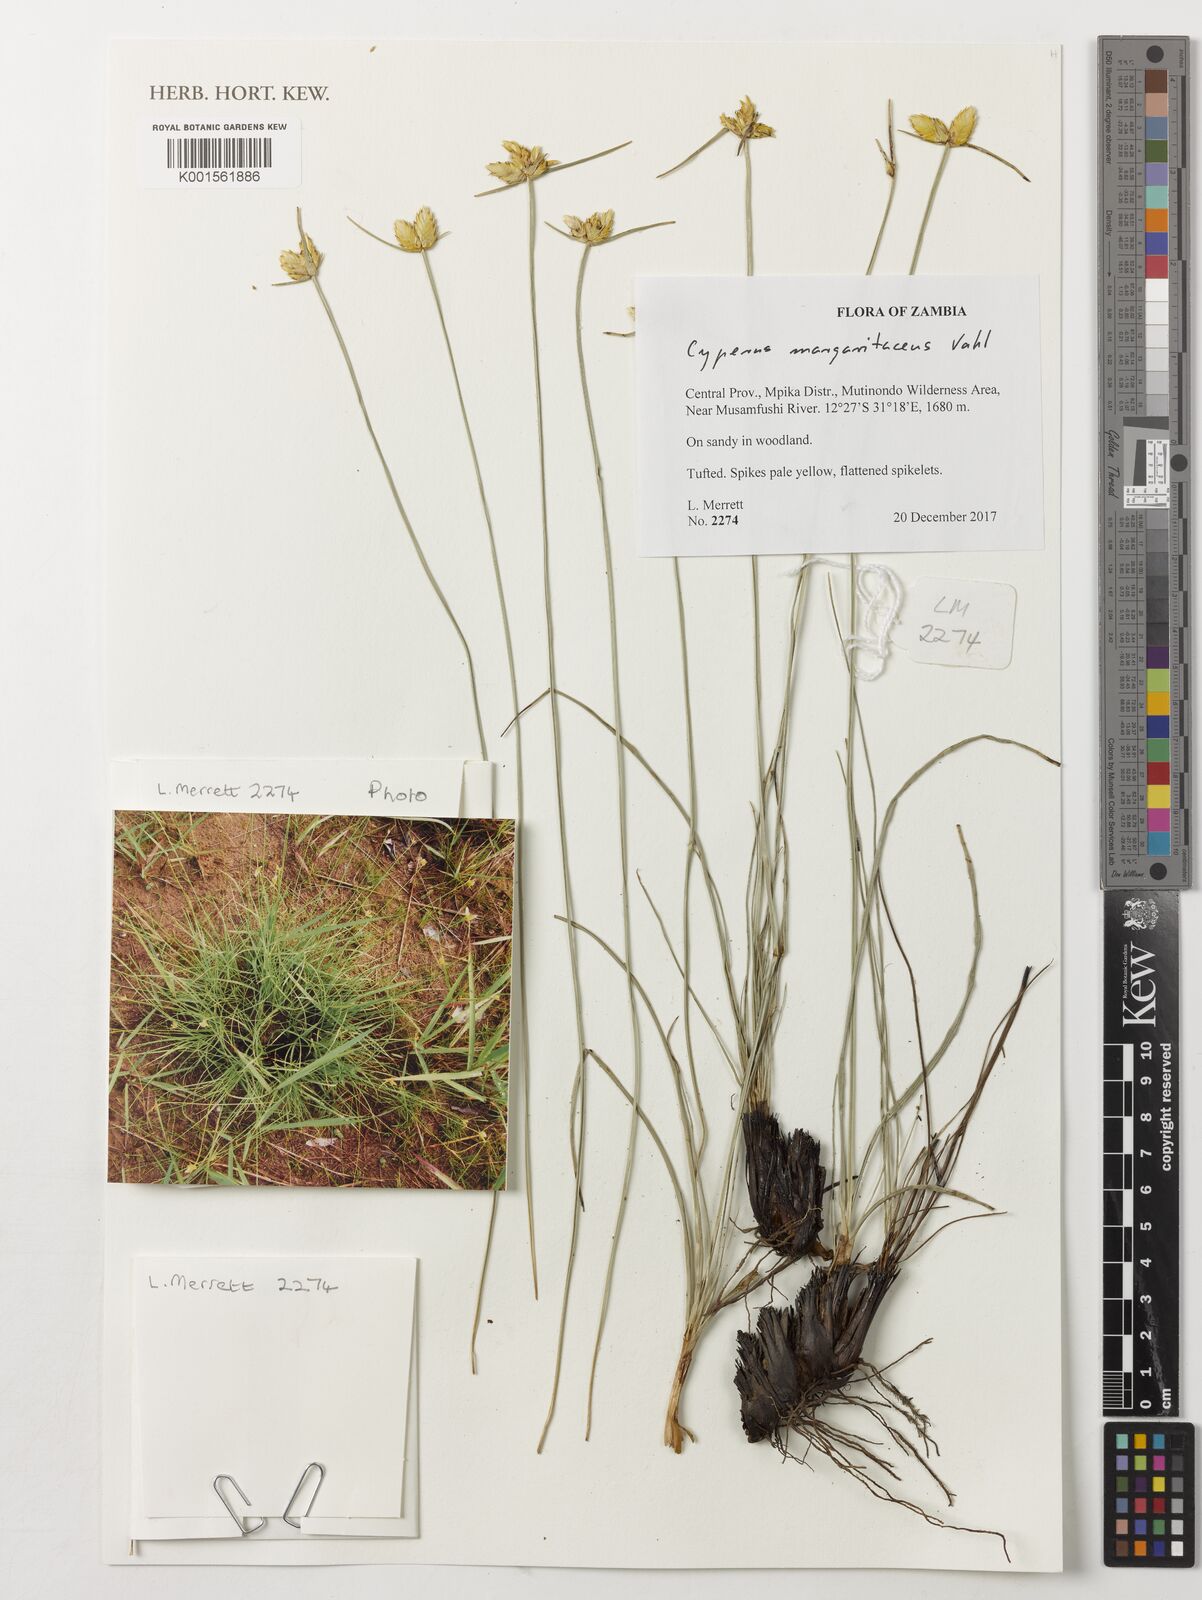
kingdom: Plantae
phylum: Tracheophyta
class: Liliopsida
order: Poales
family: Cyperaceae
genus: Cyperus
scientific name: Cyperus margaritaceus
